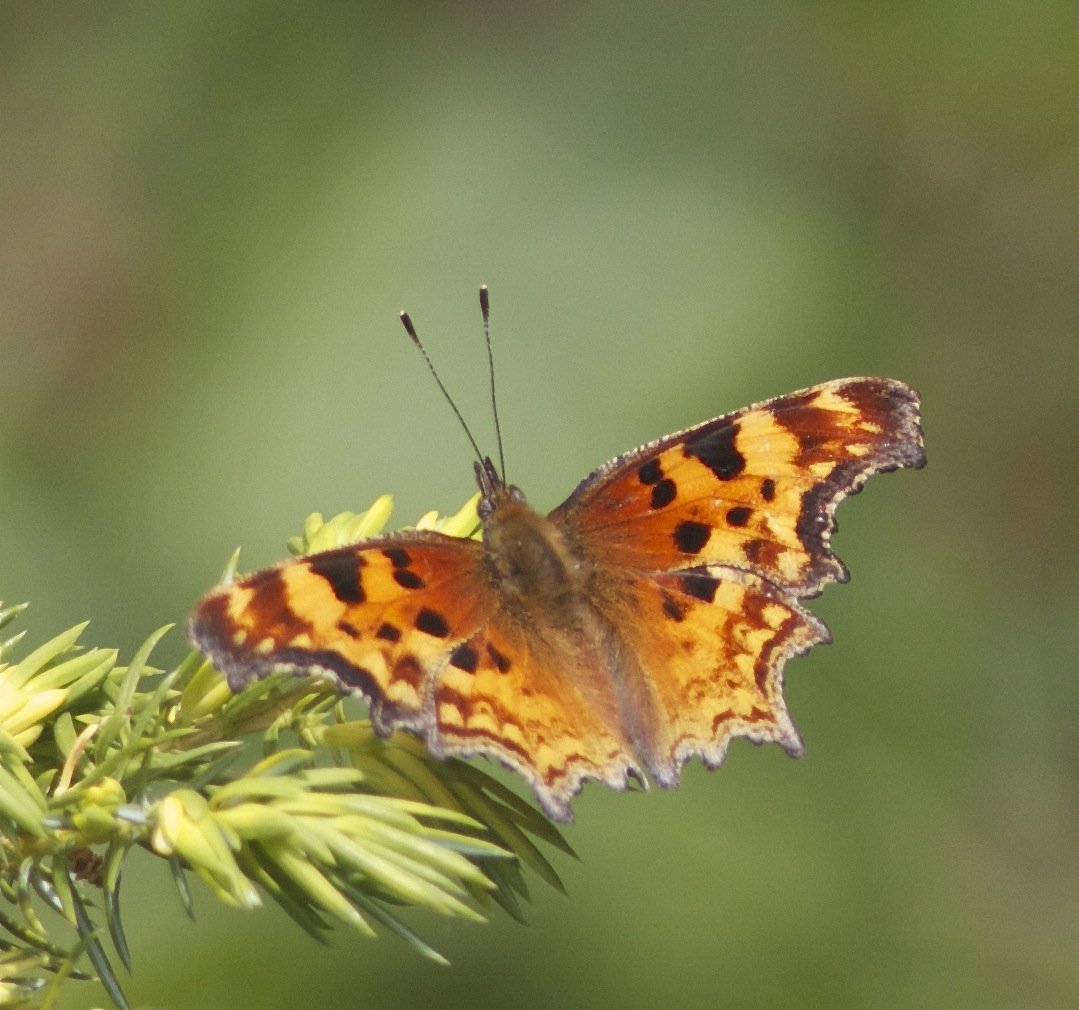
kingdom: Animalia
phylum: Arthropoda
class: Insecta
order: Lepidoptera
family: Nymphalidae
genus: Polygonia
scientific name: Polygonia gracilis
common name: Hoary Comma
